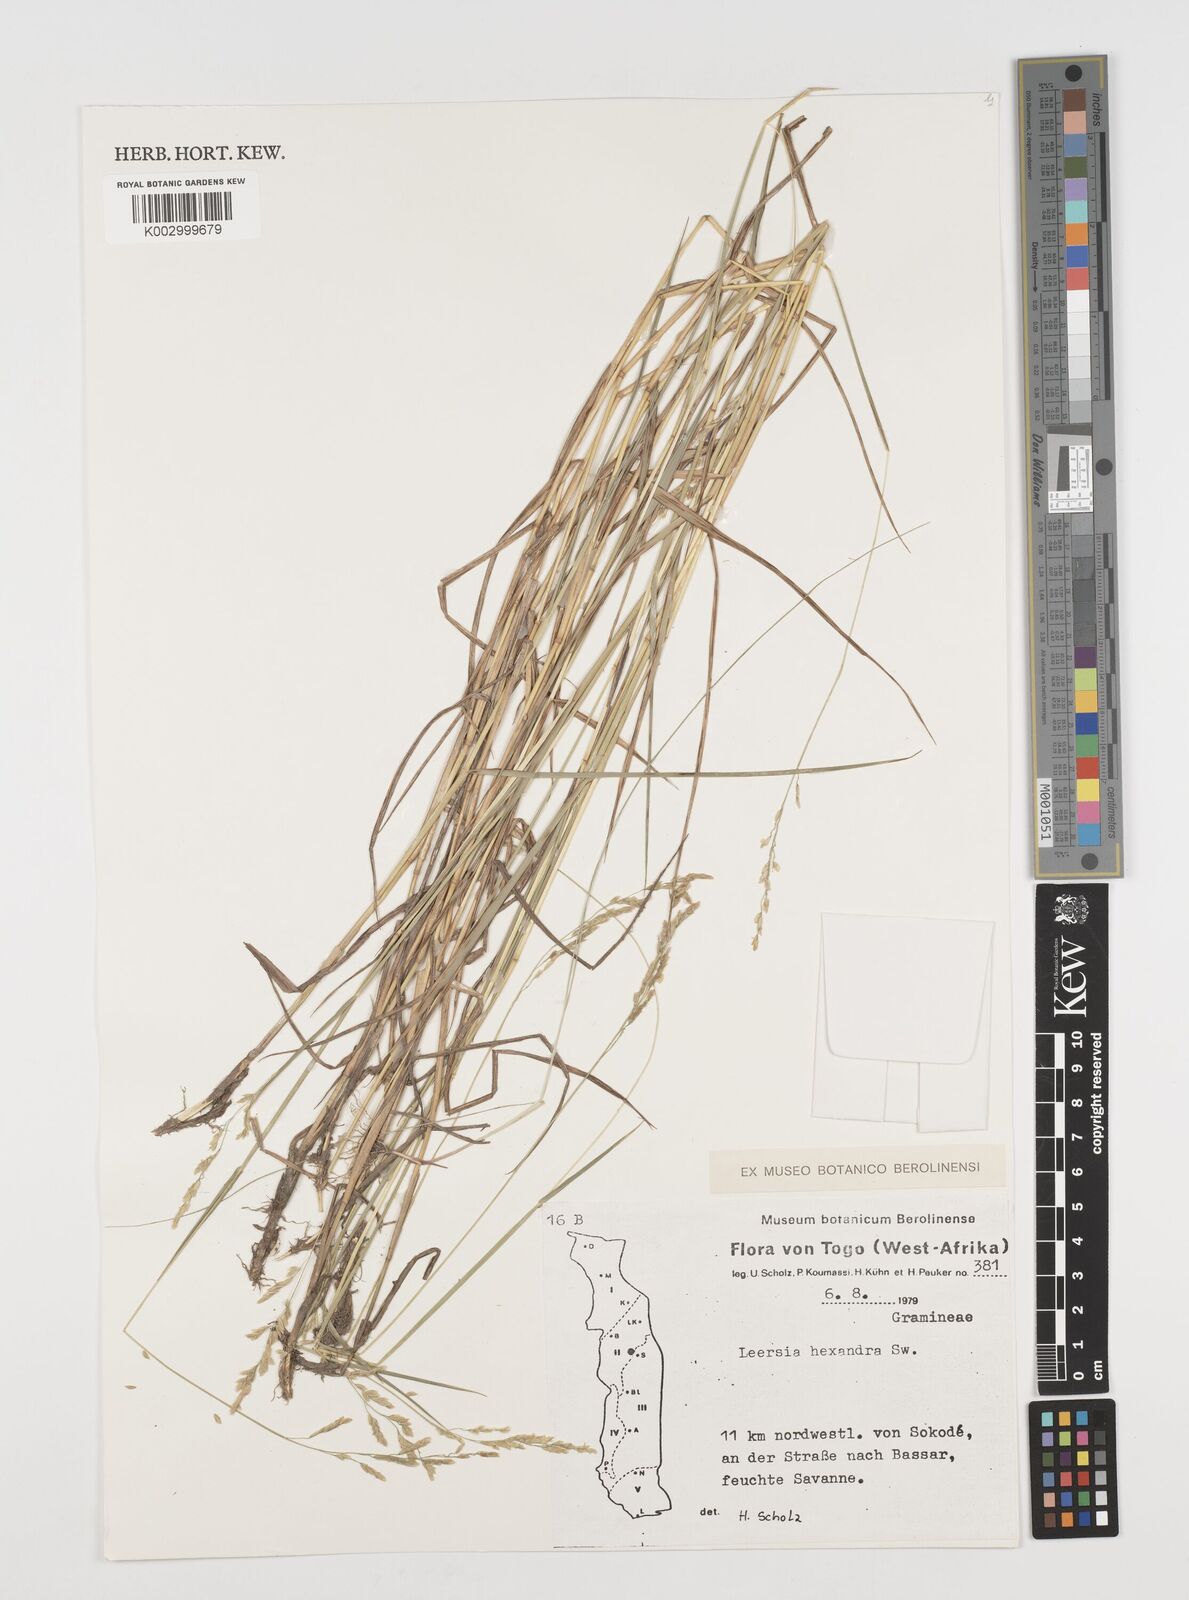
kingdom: Plantae
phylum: Tracheophyta
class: Liliopsida
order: Poales
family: Poaceae
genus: Leersia
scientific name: Leersia hexandra
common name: Southern cut grass
